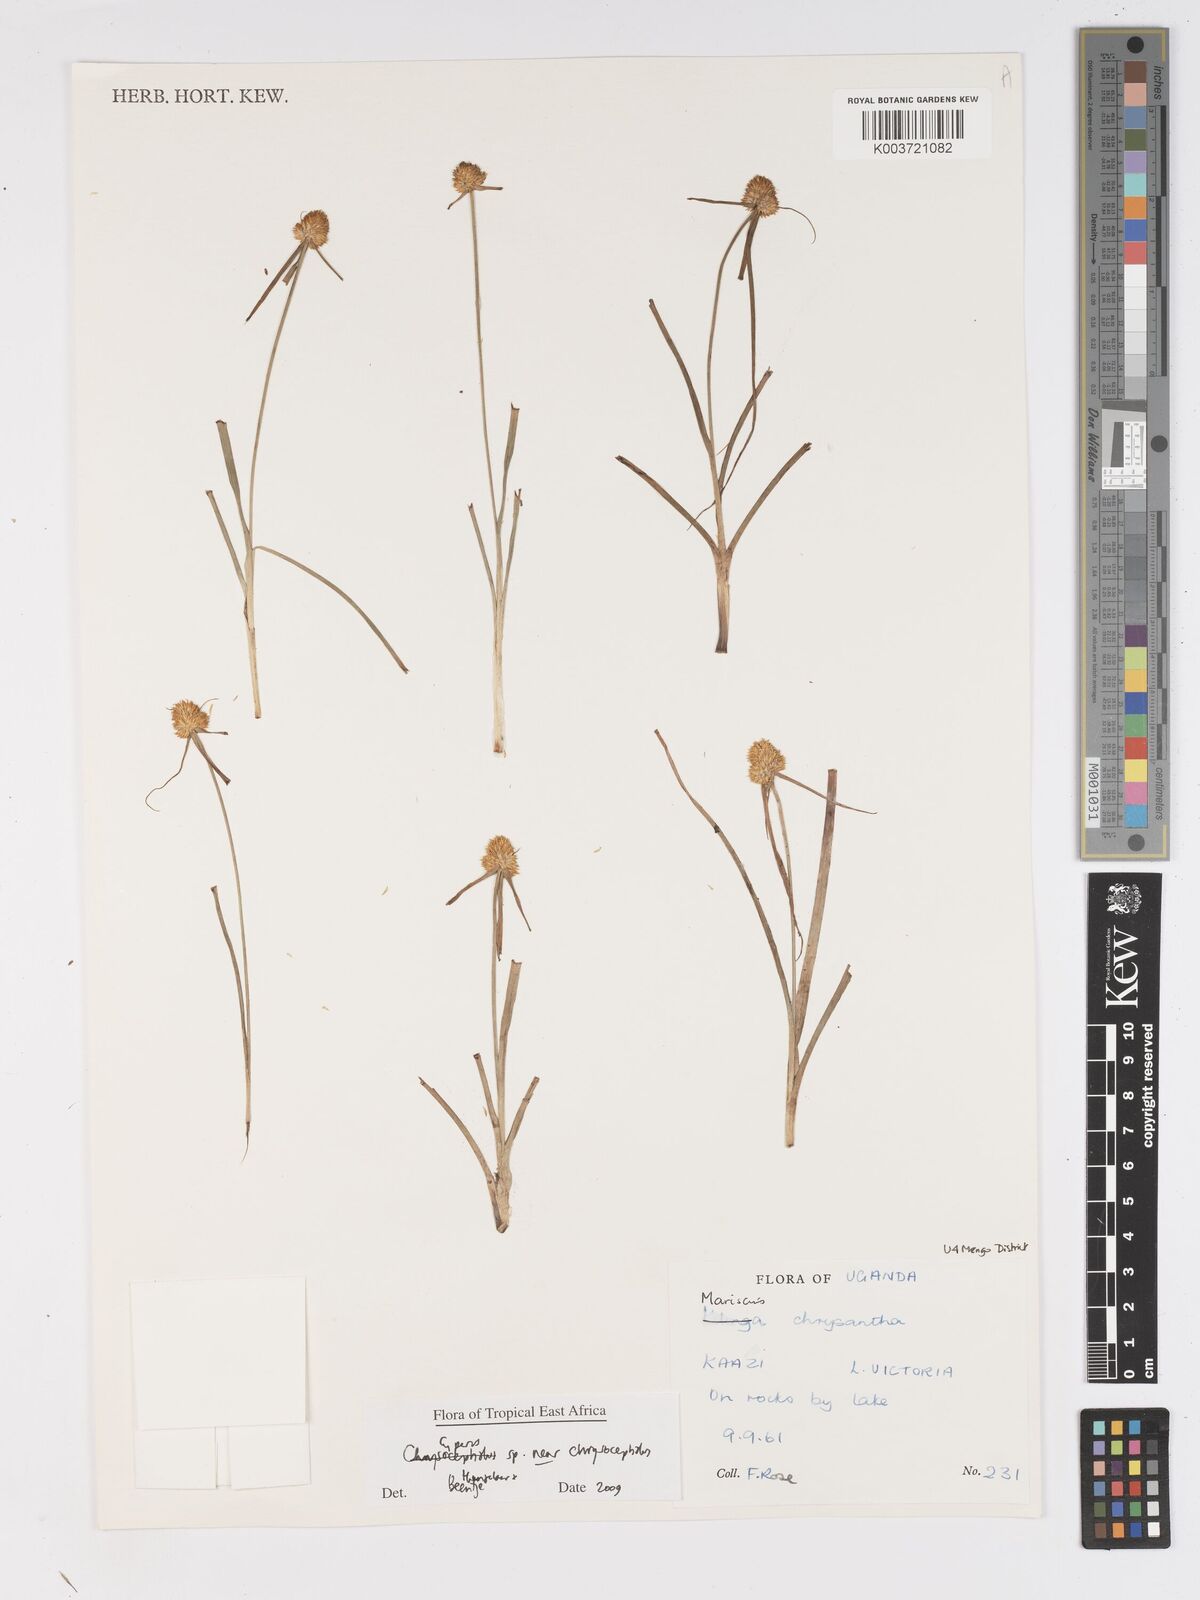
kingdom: Plantae
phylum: Tracheophyta
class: Liliopsida
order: Poales
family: Cyperaceae
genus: Cyperus
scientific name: Cyperus chrysocephalus
